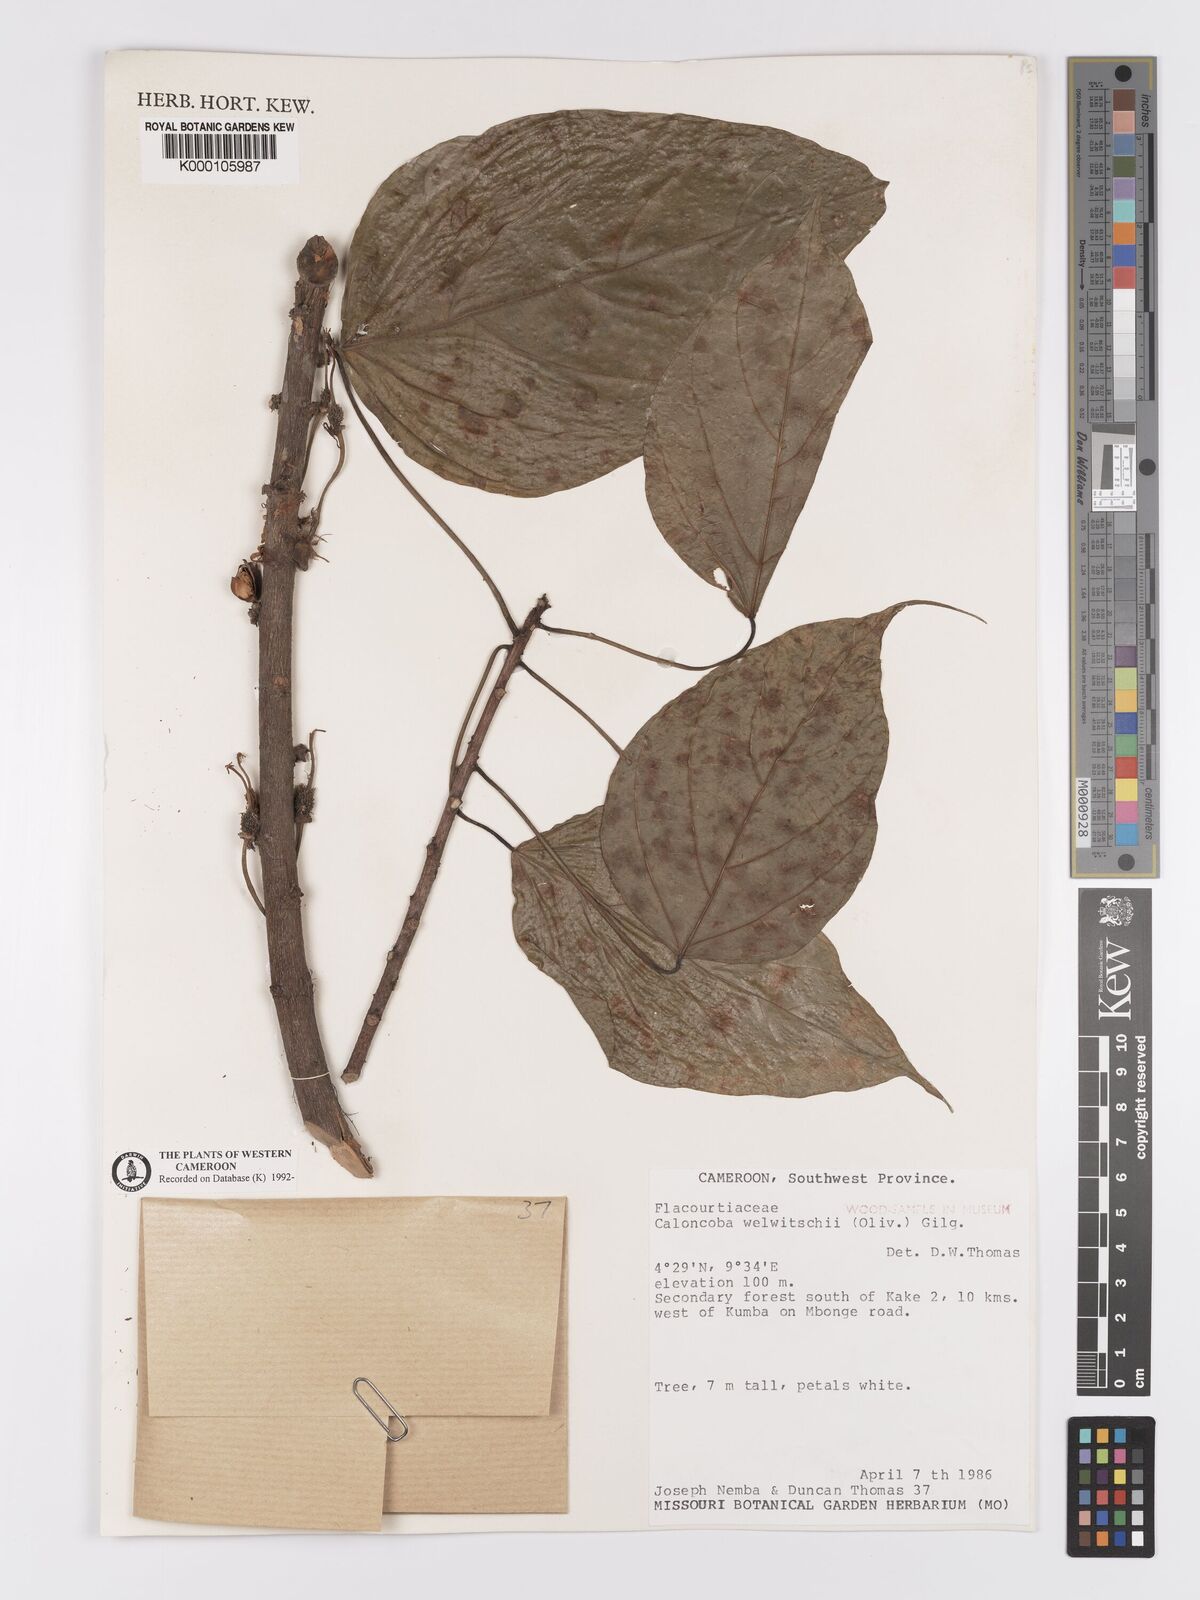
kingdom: Plantae
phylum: Tracheophyta
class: Magnoliopsida
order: Malpighiales
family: Achariaceae
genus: Caloncoba
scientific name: Caloncoba welwitschii
